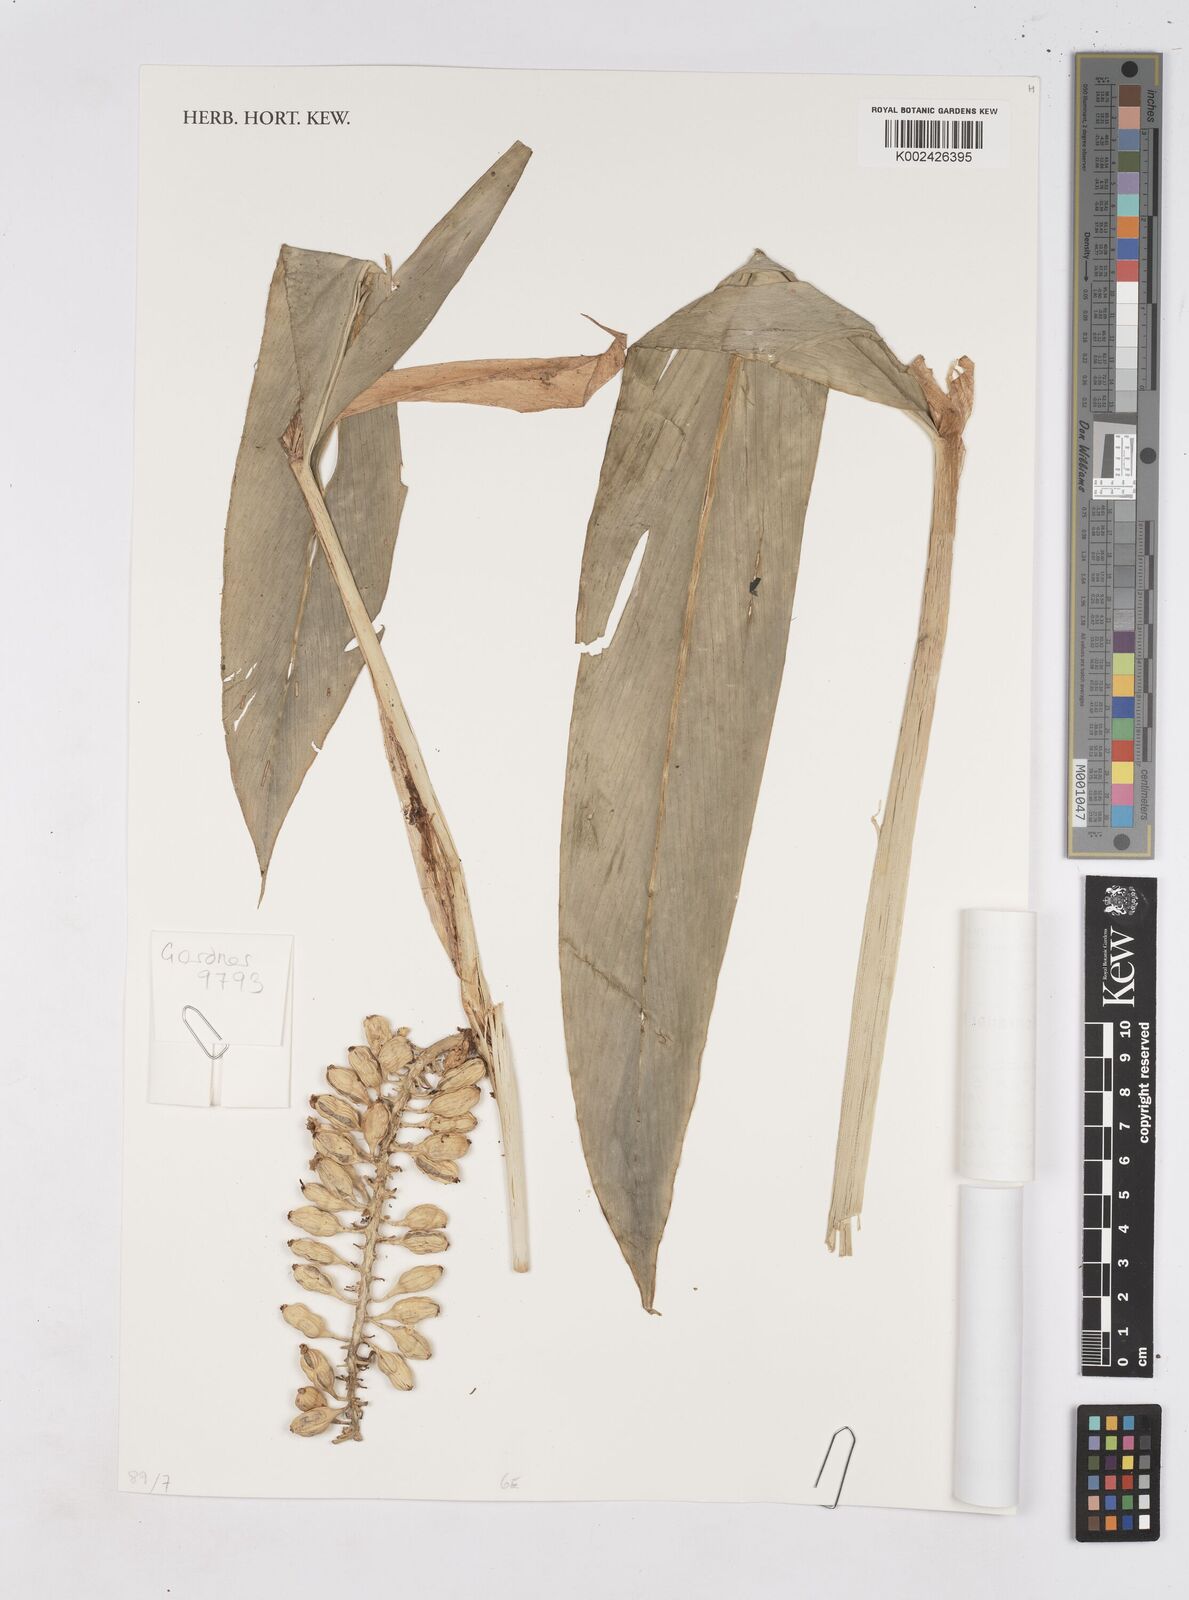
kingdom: Plantae
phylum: Tracheophyta
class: Liliopsida
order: Zingiberales
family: Zingiberaceae
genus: Pleuranthodium
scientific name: Pleuranthodium
